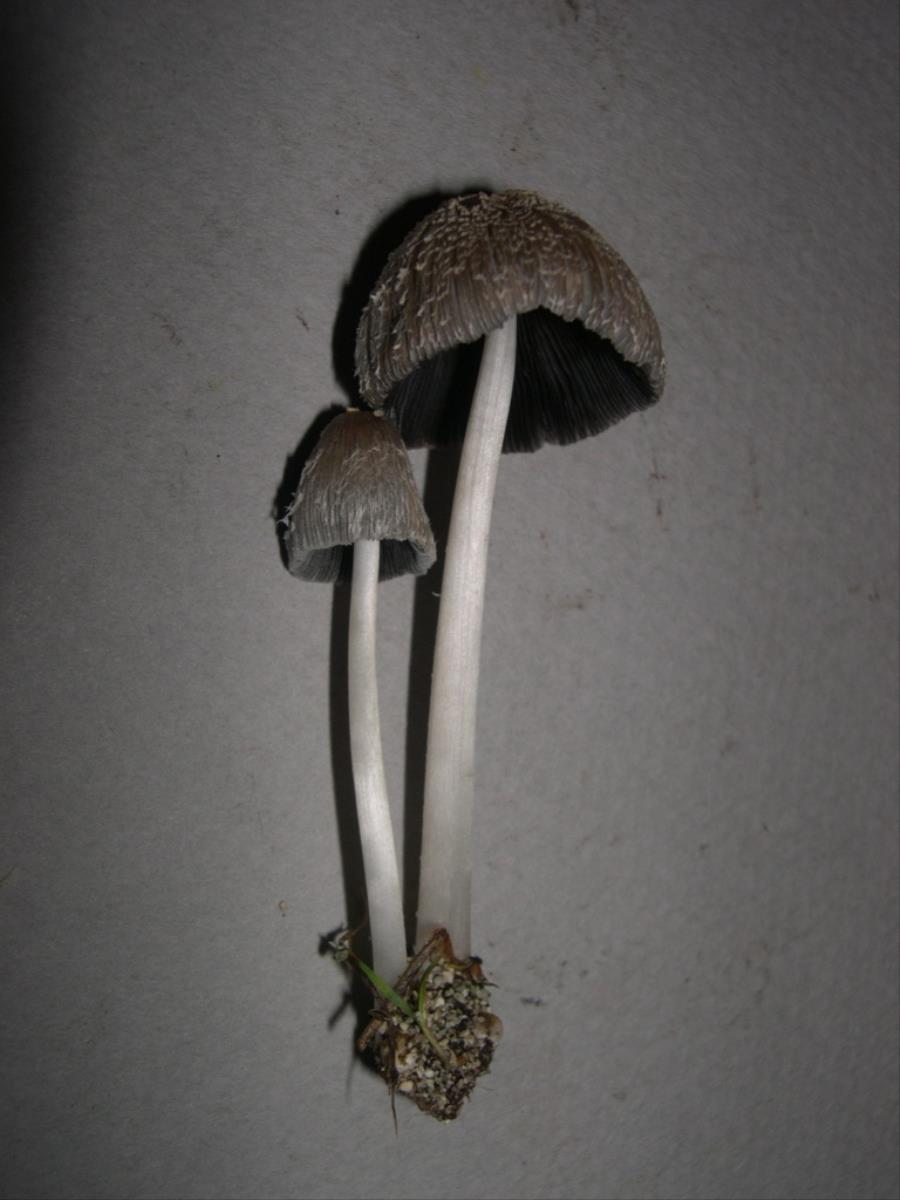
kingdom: Fungi
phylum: Basidiomycota
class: Agaricomycetes
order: Agaricales
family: Psathyrellaceae
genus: Coprinopsis
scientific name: Coprinopsis macrocephala
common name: Bighead inkcap
